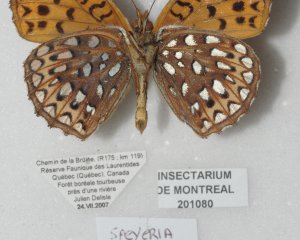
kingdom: Animalia
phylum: Arthropoda
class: Insecta
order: Lepidoptera
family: Nymphalidae
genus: Speyeria
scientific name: Speyeria atlantis
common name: Atlantis Fritillary
